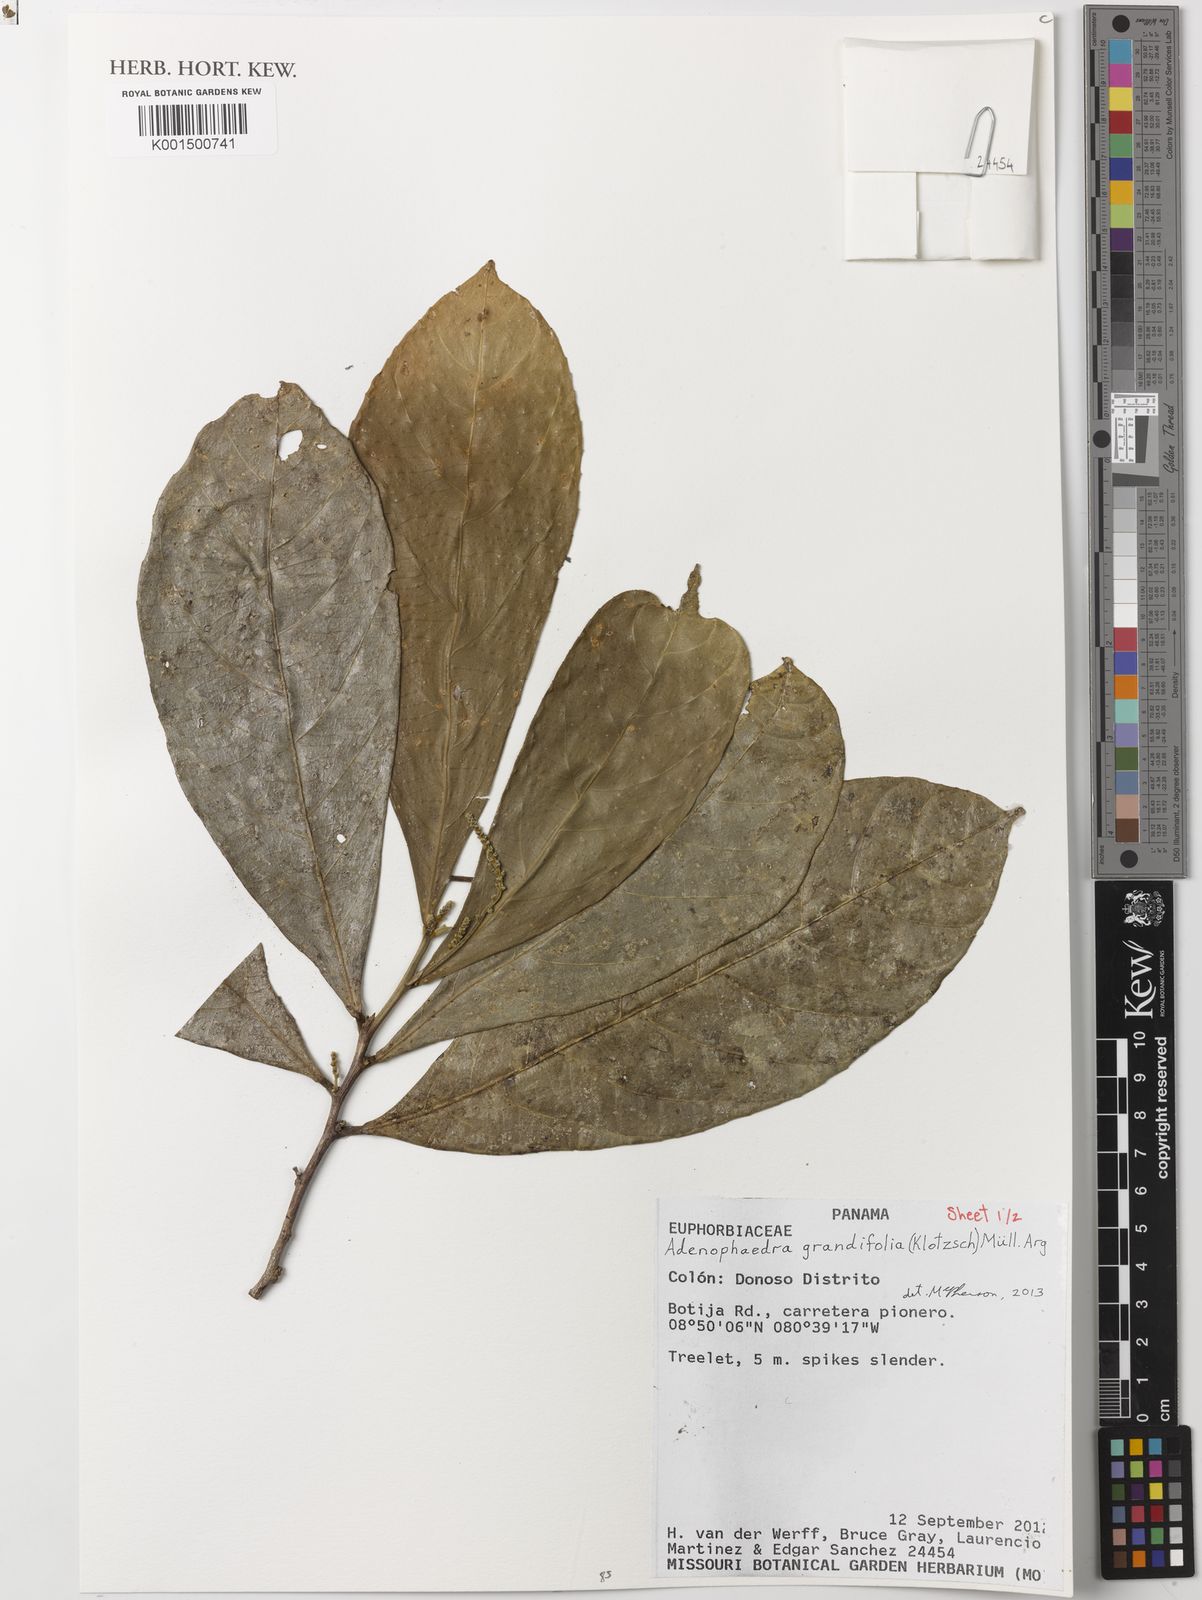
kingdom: Plantae
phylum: Tracheophyta
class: Magnoliopsida
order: Malpighiales
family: Euphorbiaceae
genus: Adenophaedra
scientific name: Adenophaedra grandifolia
